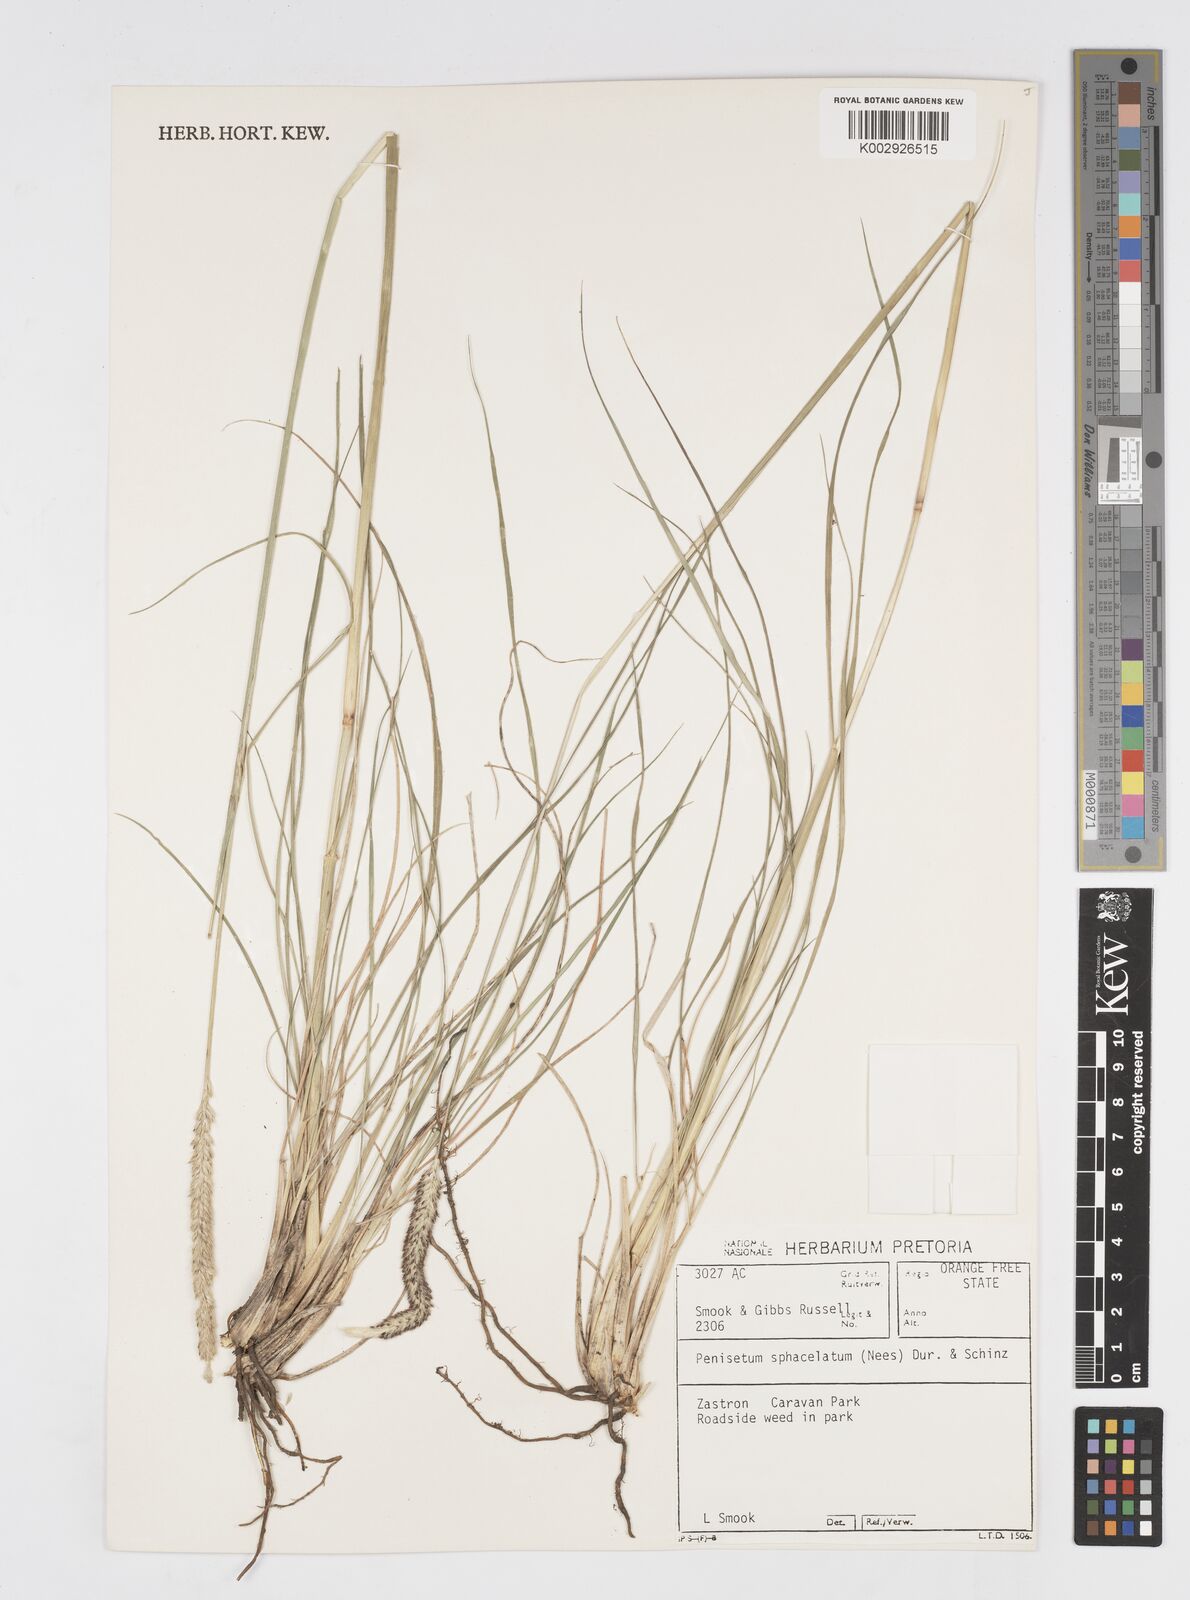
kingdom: Plantae
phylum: Tracheophyta
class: Liliopsida
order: Poales
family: Poaceae
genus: Cenchrus
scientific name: Cenchrus sphacelatus
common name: Bulgras
